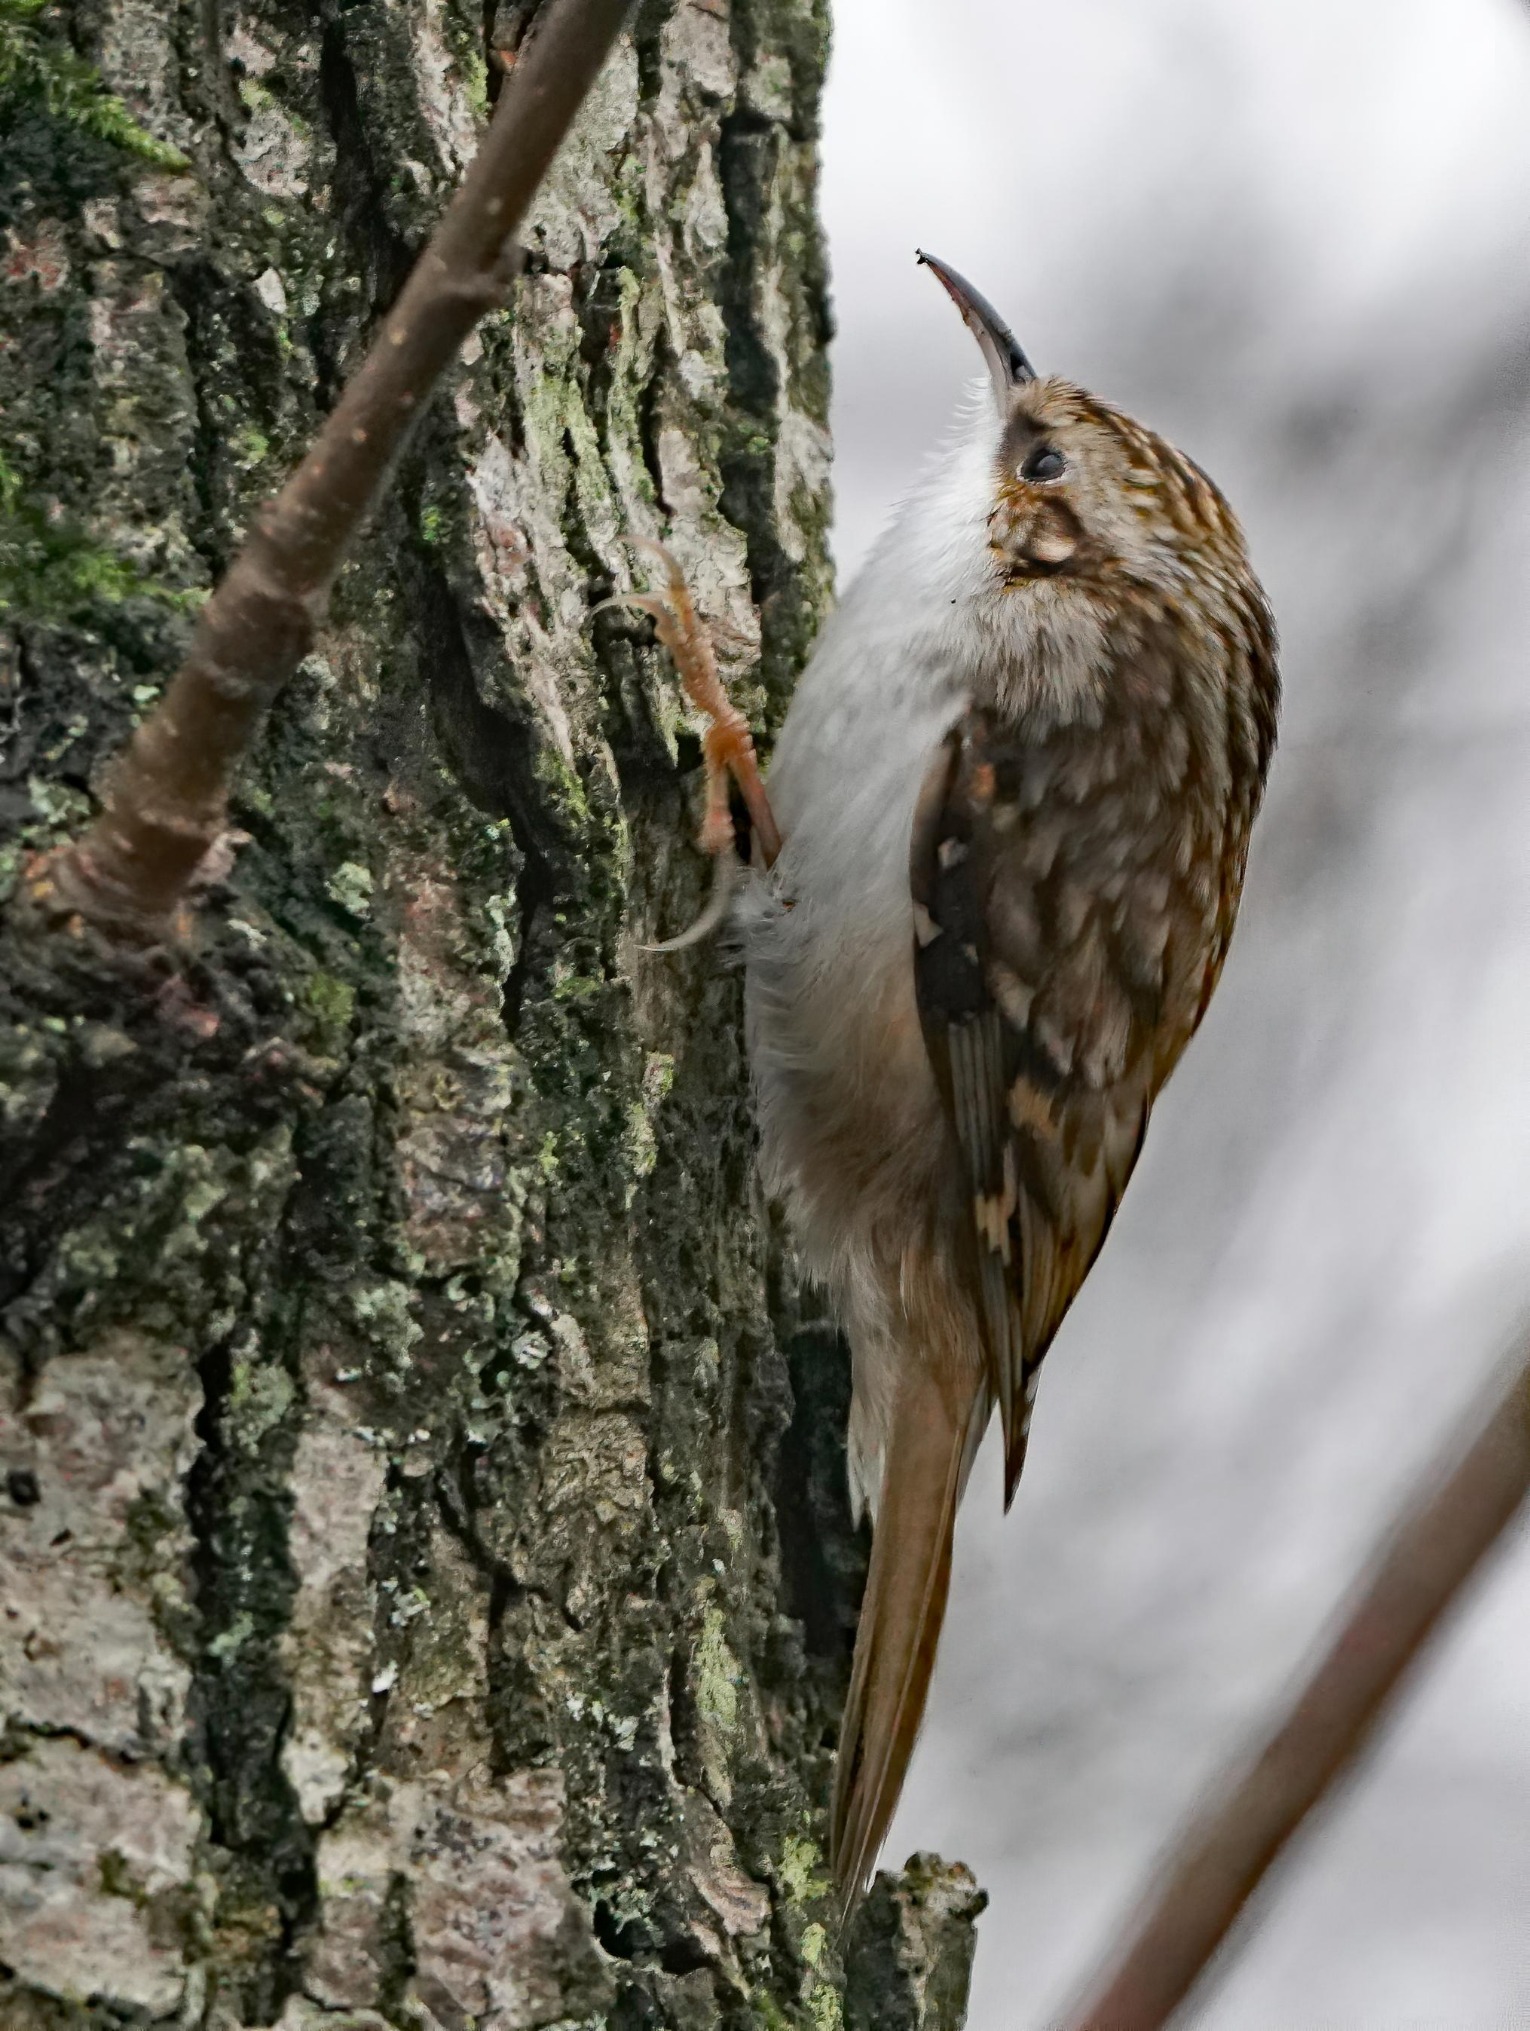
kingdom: Animalia
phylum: Chordata
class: Aves
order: Passeriformes
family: Certhiidae
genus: Certhia
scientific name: Certhia familiaris
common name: Træløber
